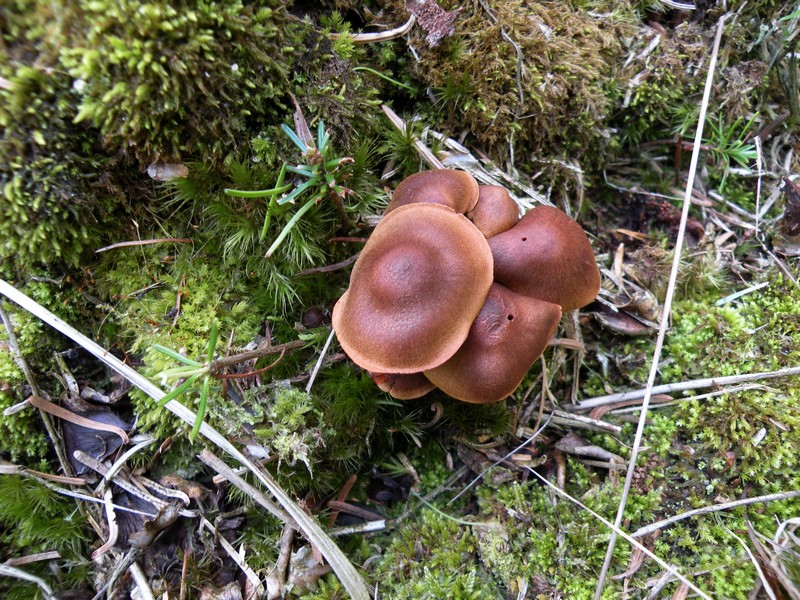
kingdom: Fungi
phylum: Basidiomycota
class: Agaricomycetes
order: Agaricales
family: Cortinariaceae
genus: Cortinarius
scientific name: Cortinarius cinnamomeus
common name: kanel-slørhat
